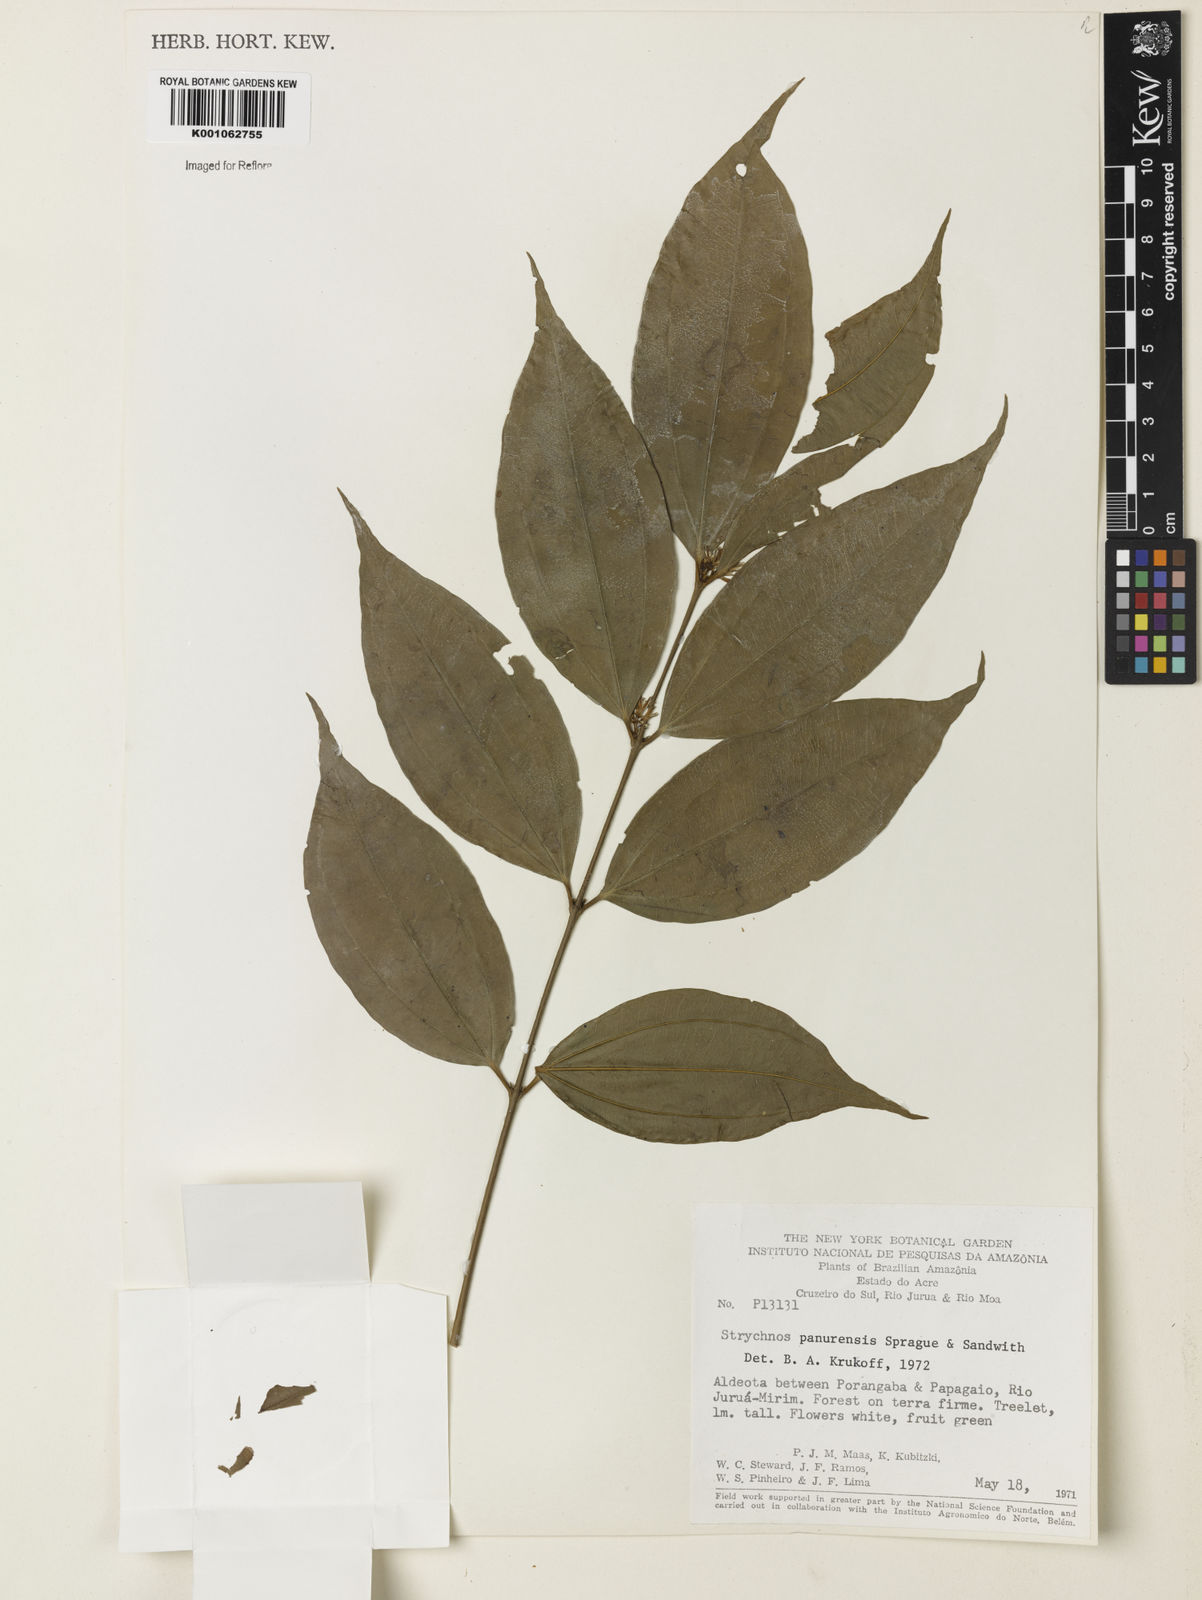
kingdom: Plantae
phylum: Tracheophyta
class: Magnoliopsida
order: Gentianales
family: Loganiaceae
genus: Strychnos
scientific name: Strychnos gubleri
